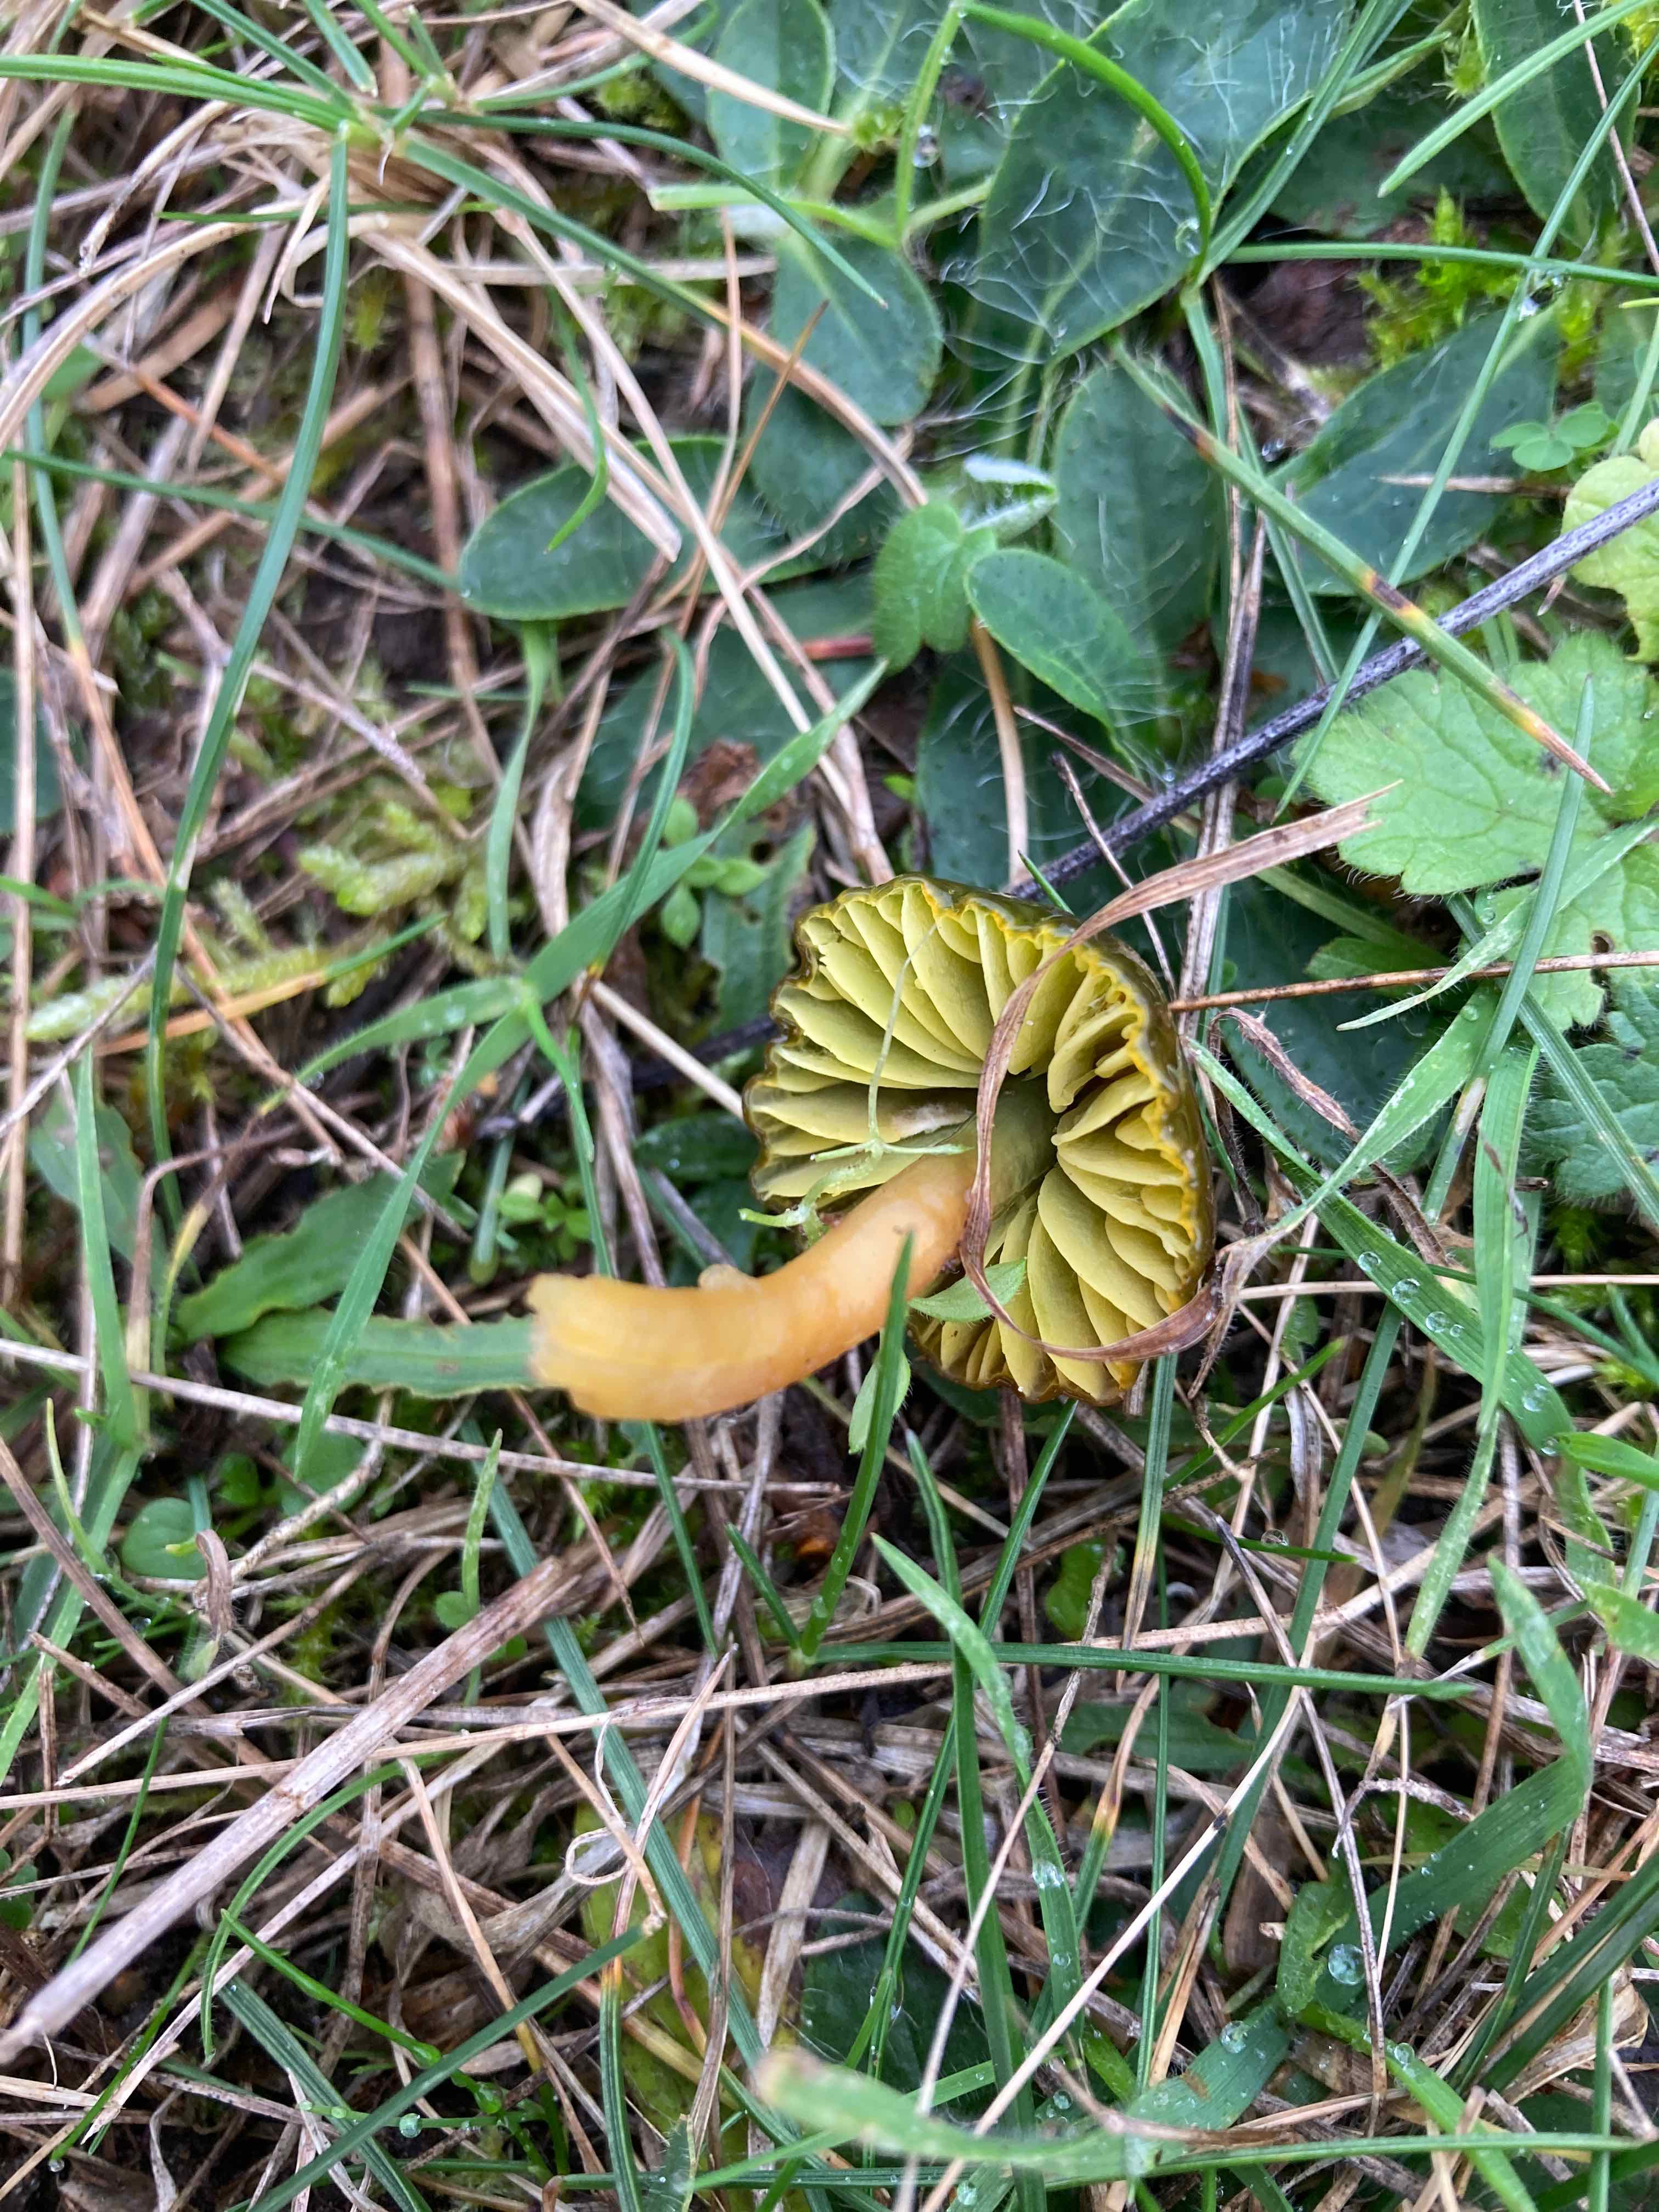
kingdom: Fungi
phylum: Basidiomycota
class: Agaricomycetes
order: Agaricales
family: Hygrophoraceae
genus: Gliophorus
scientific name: Gliophorus psittacinus
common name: papegøje-vokshat
